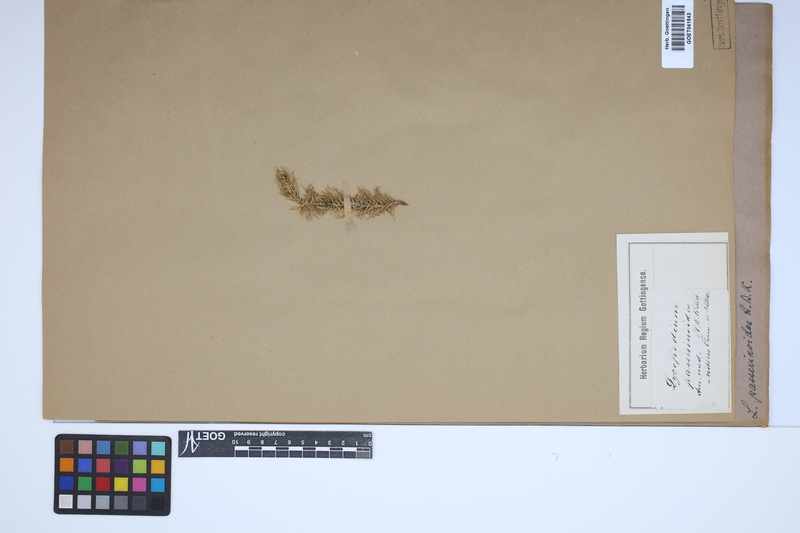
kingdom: Plantae
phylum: Tracheophyta
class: Lycopodiopsida
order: Lycopodiales
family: Lycopodiaceae
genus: Phlegmariurus
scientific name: Phlegmariurus taxifolius
